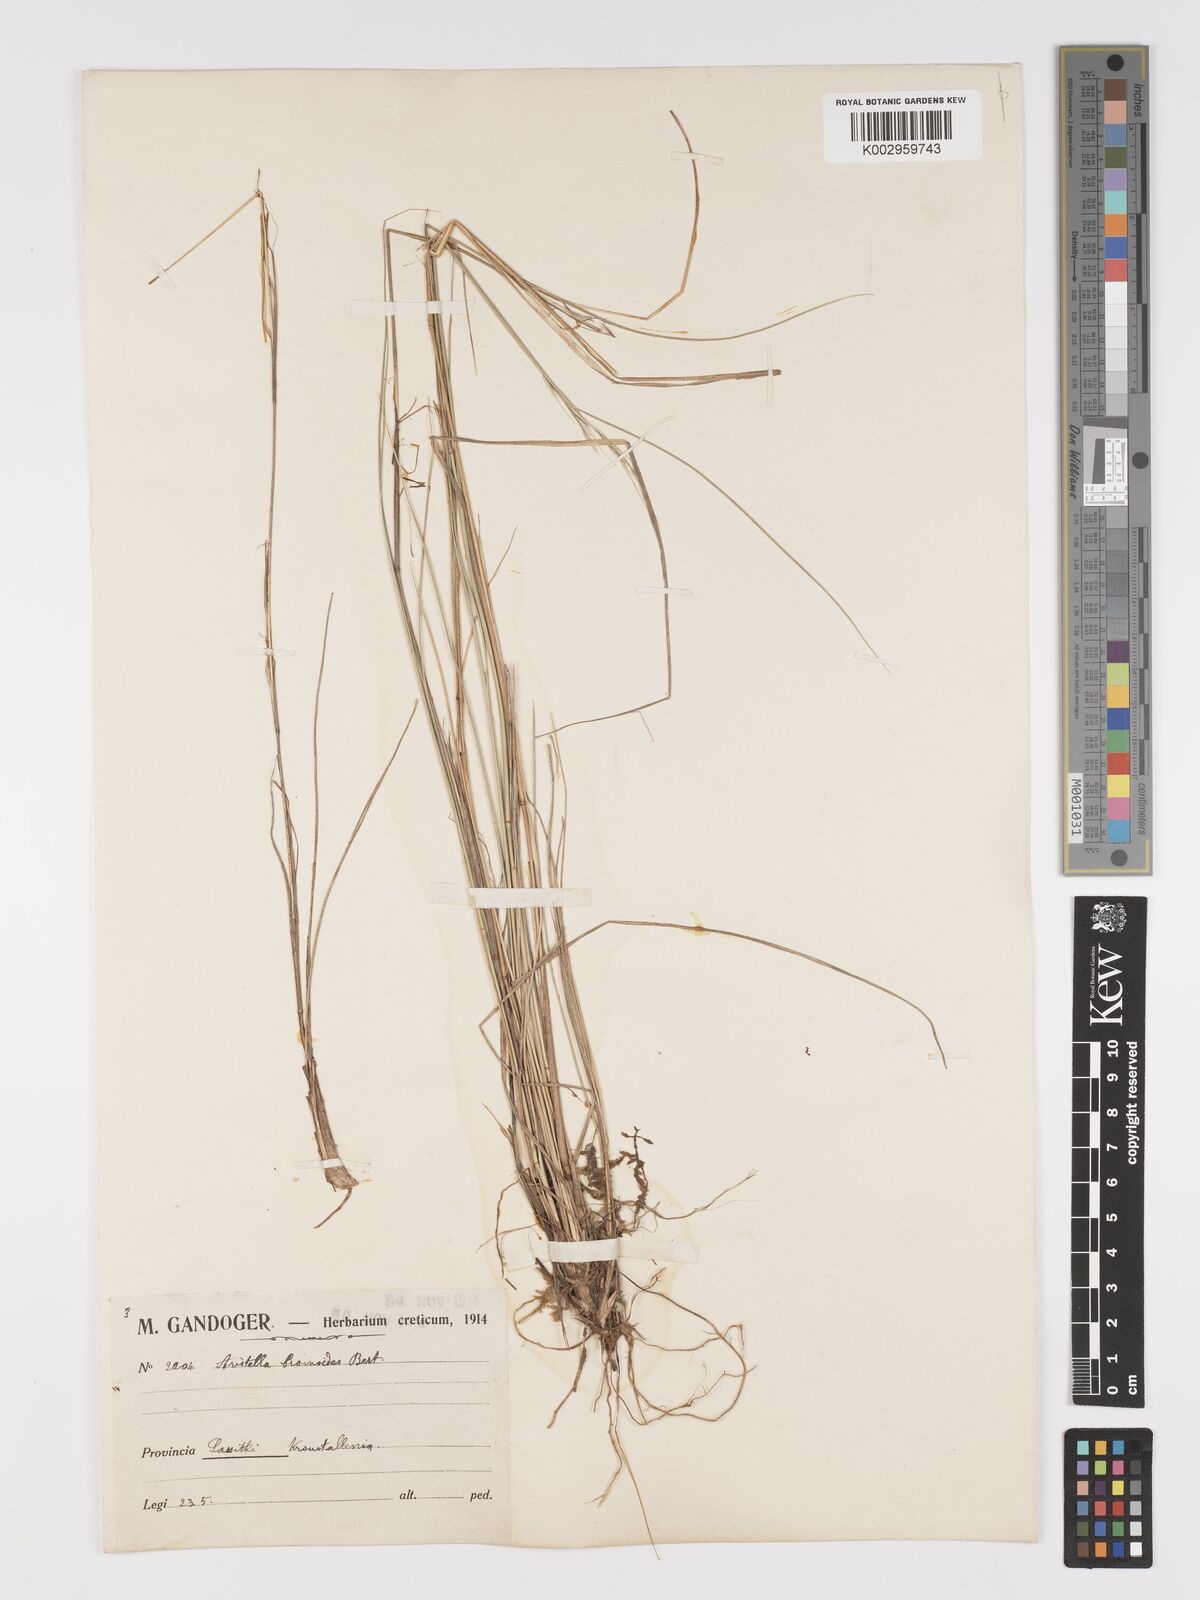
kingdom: Plantae
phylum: Tracheophyta
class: Liliopsida
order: Poales
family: Poaceae
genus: Achnatherum
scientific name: Achnatherum bromoides
